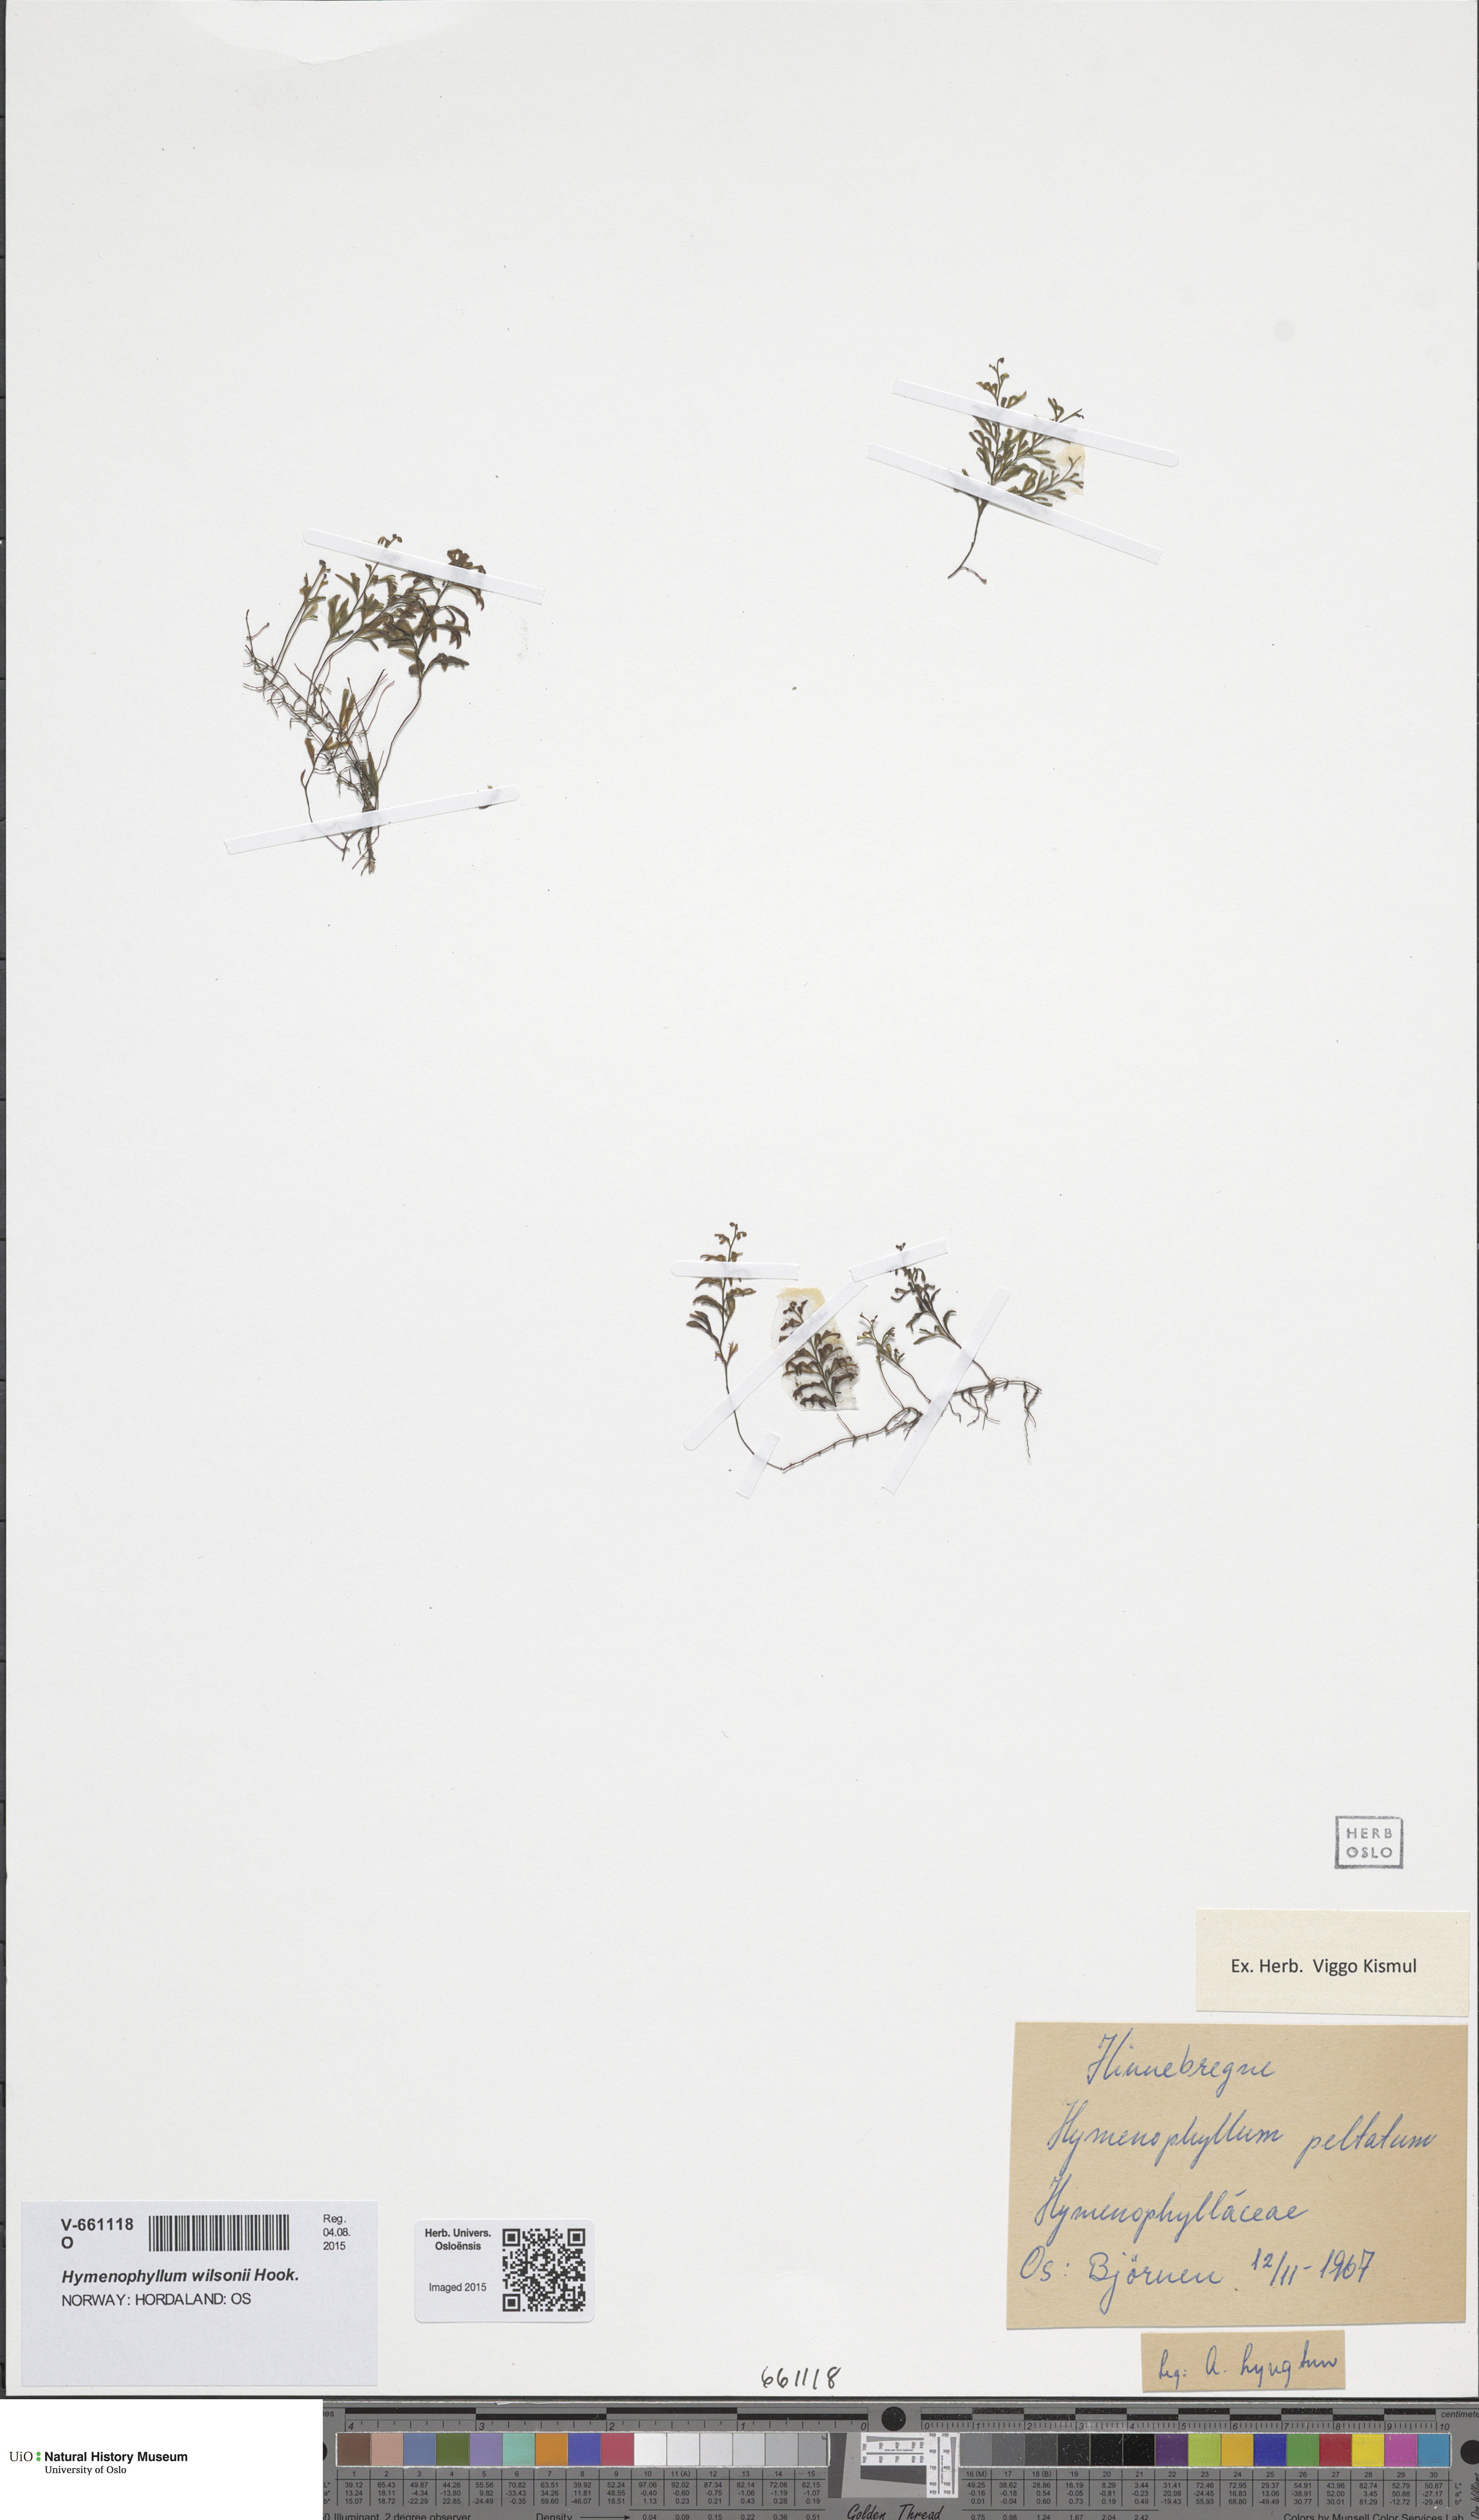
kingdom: Plantae
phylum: Tracheophyta
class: Polypodiopsida
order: Hymenophyllales
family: Hymenophyllaceae
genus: Hymenophyllum
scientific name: Hymenophyllum peltatum
